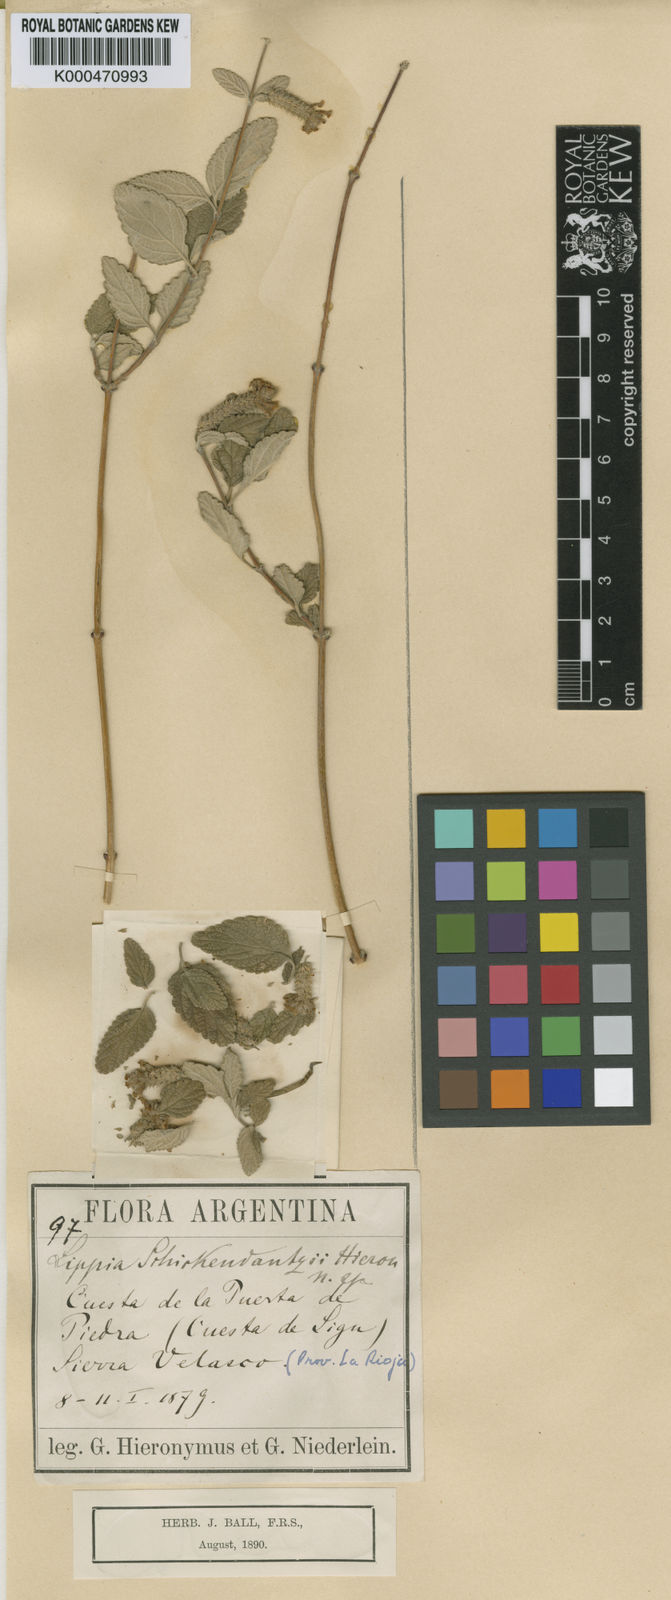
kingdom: Plantae
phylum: Tracheophyta
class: Magnoliopsida
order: Lamiales
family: Verbenaceae
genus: Aloysia
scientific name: Aloysia
